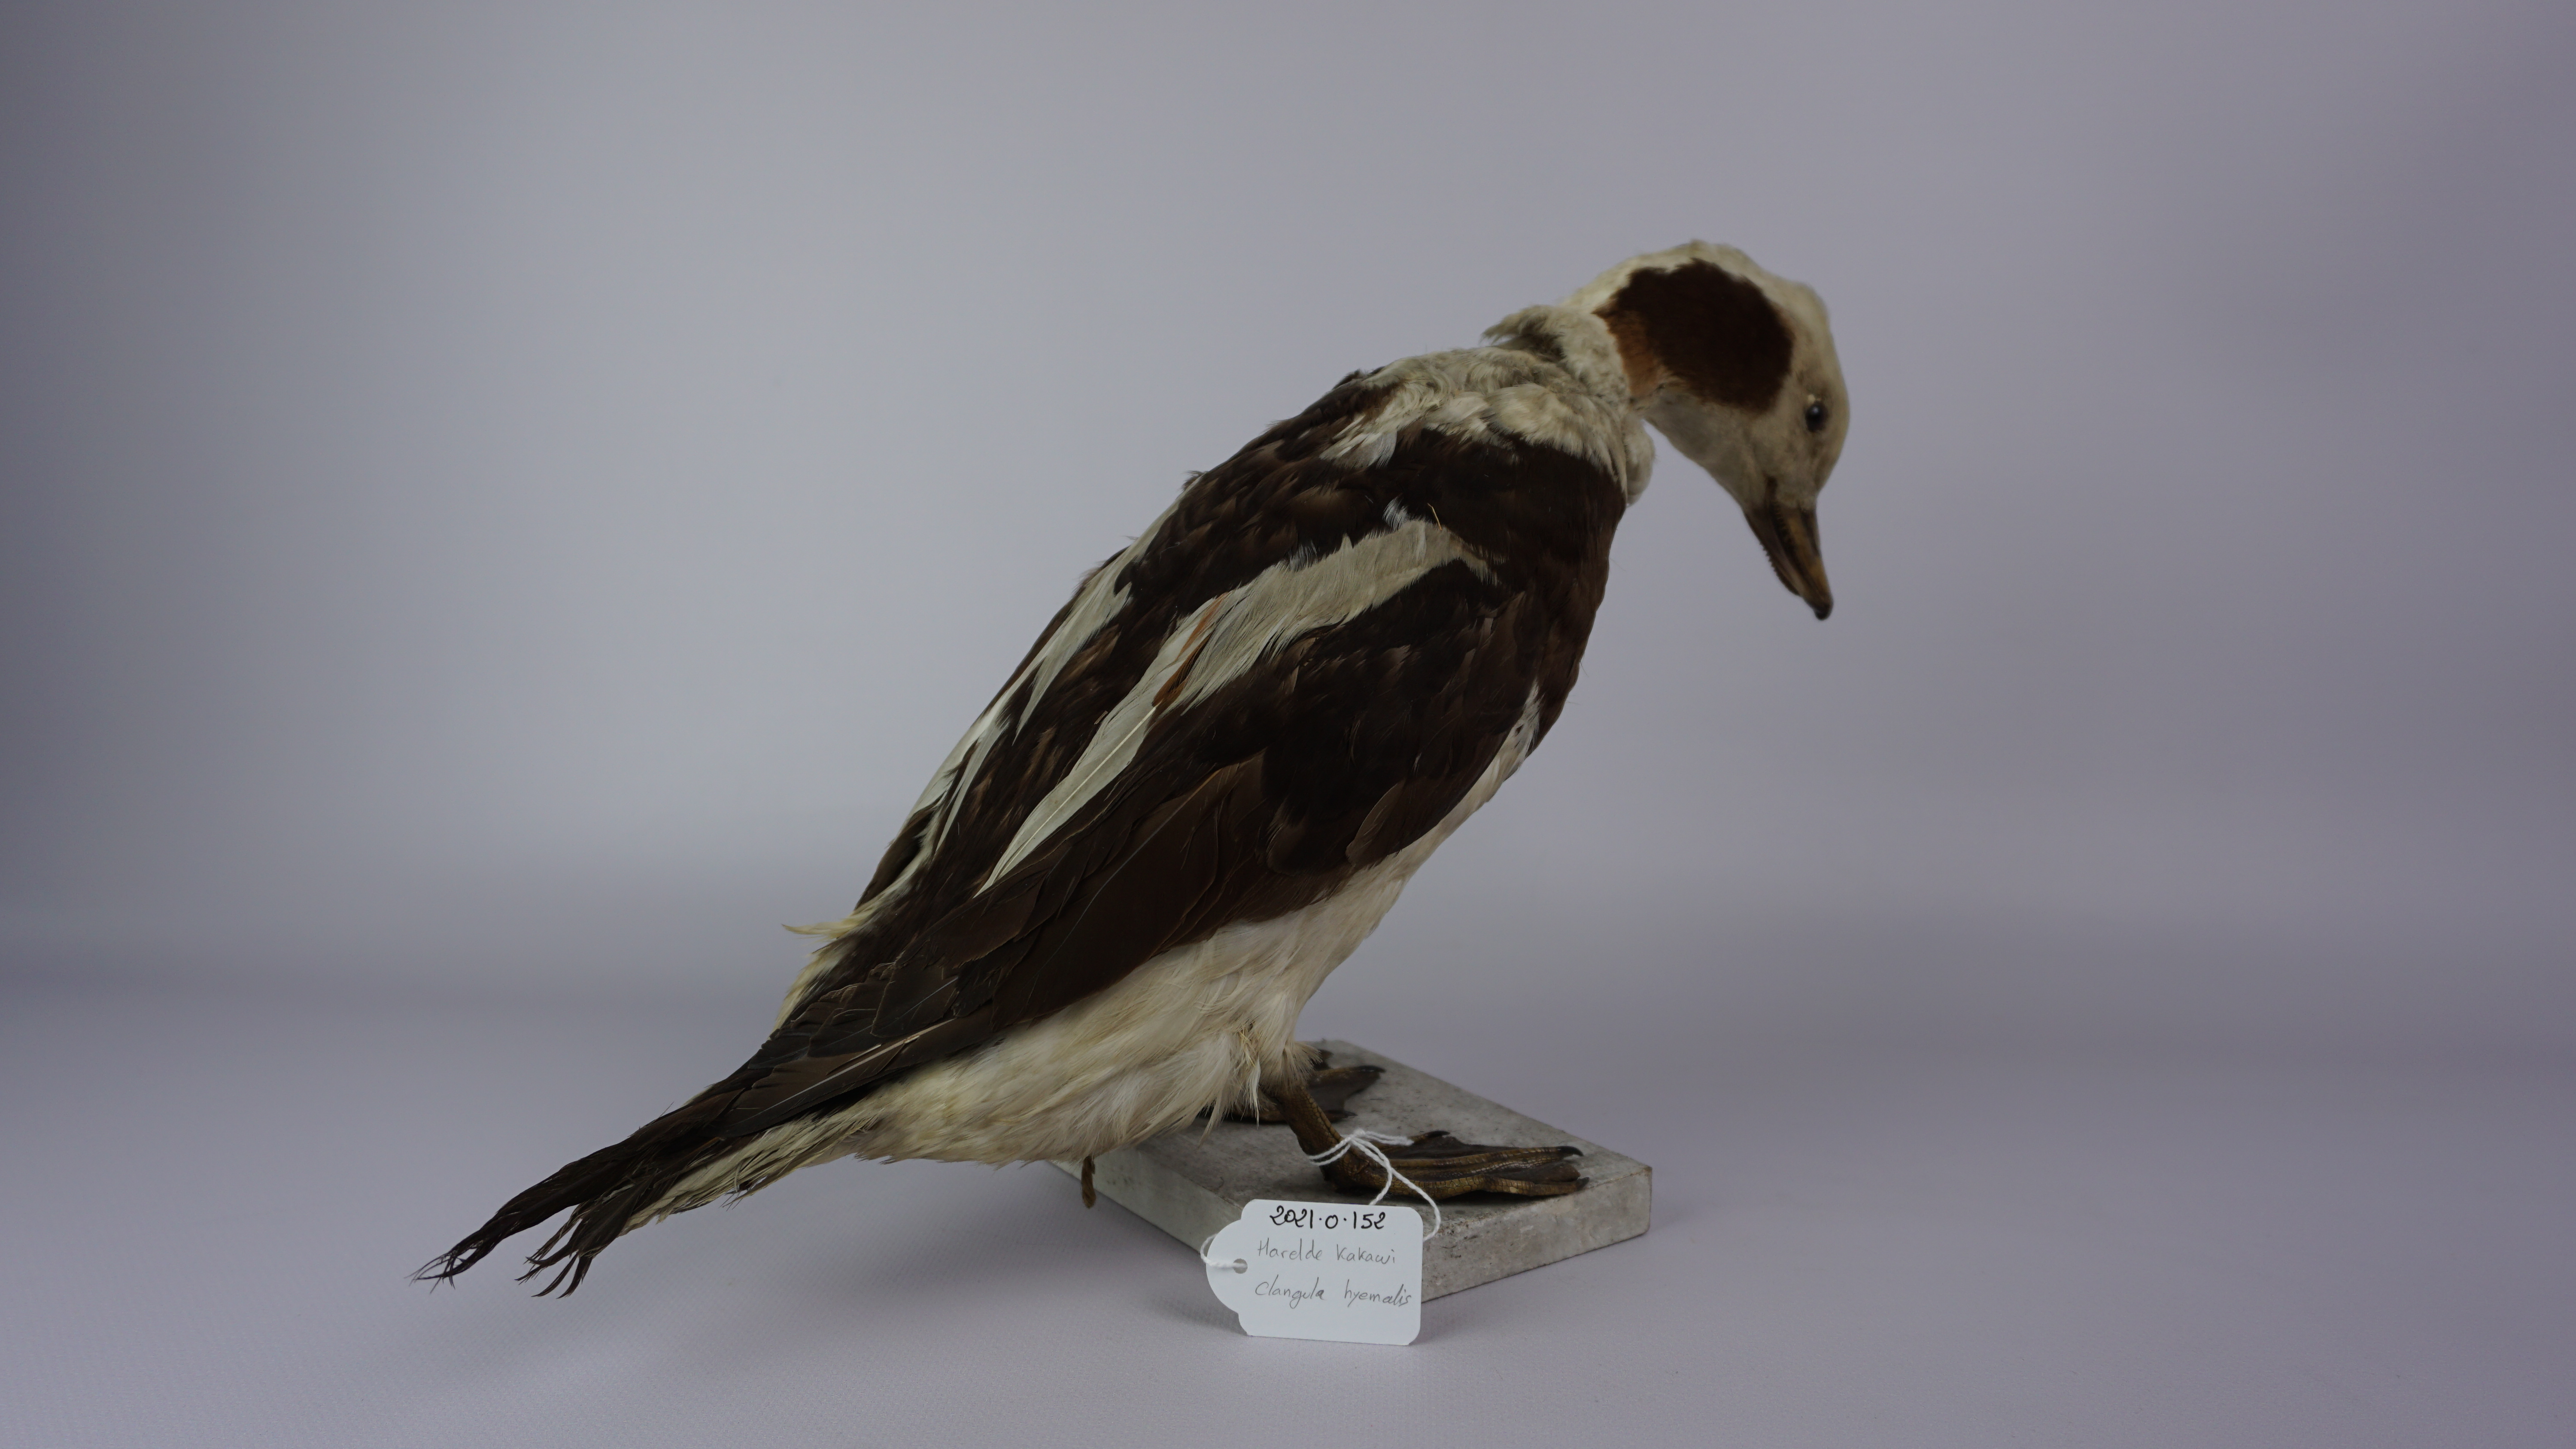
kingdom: Animalia
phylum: Chordata
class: Aves
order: Anseriformes
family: Anatidae
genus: Clangula
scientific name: Clangula hyemalis
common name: Long-tailed duck
